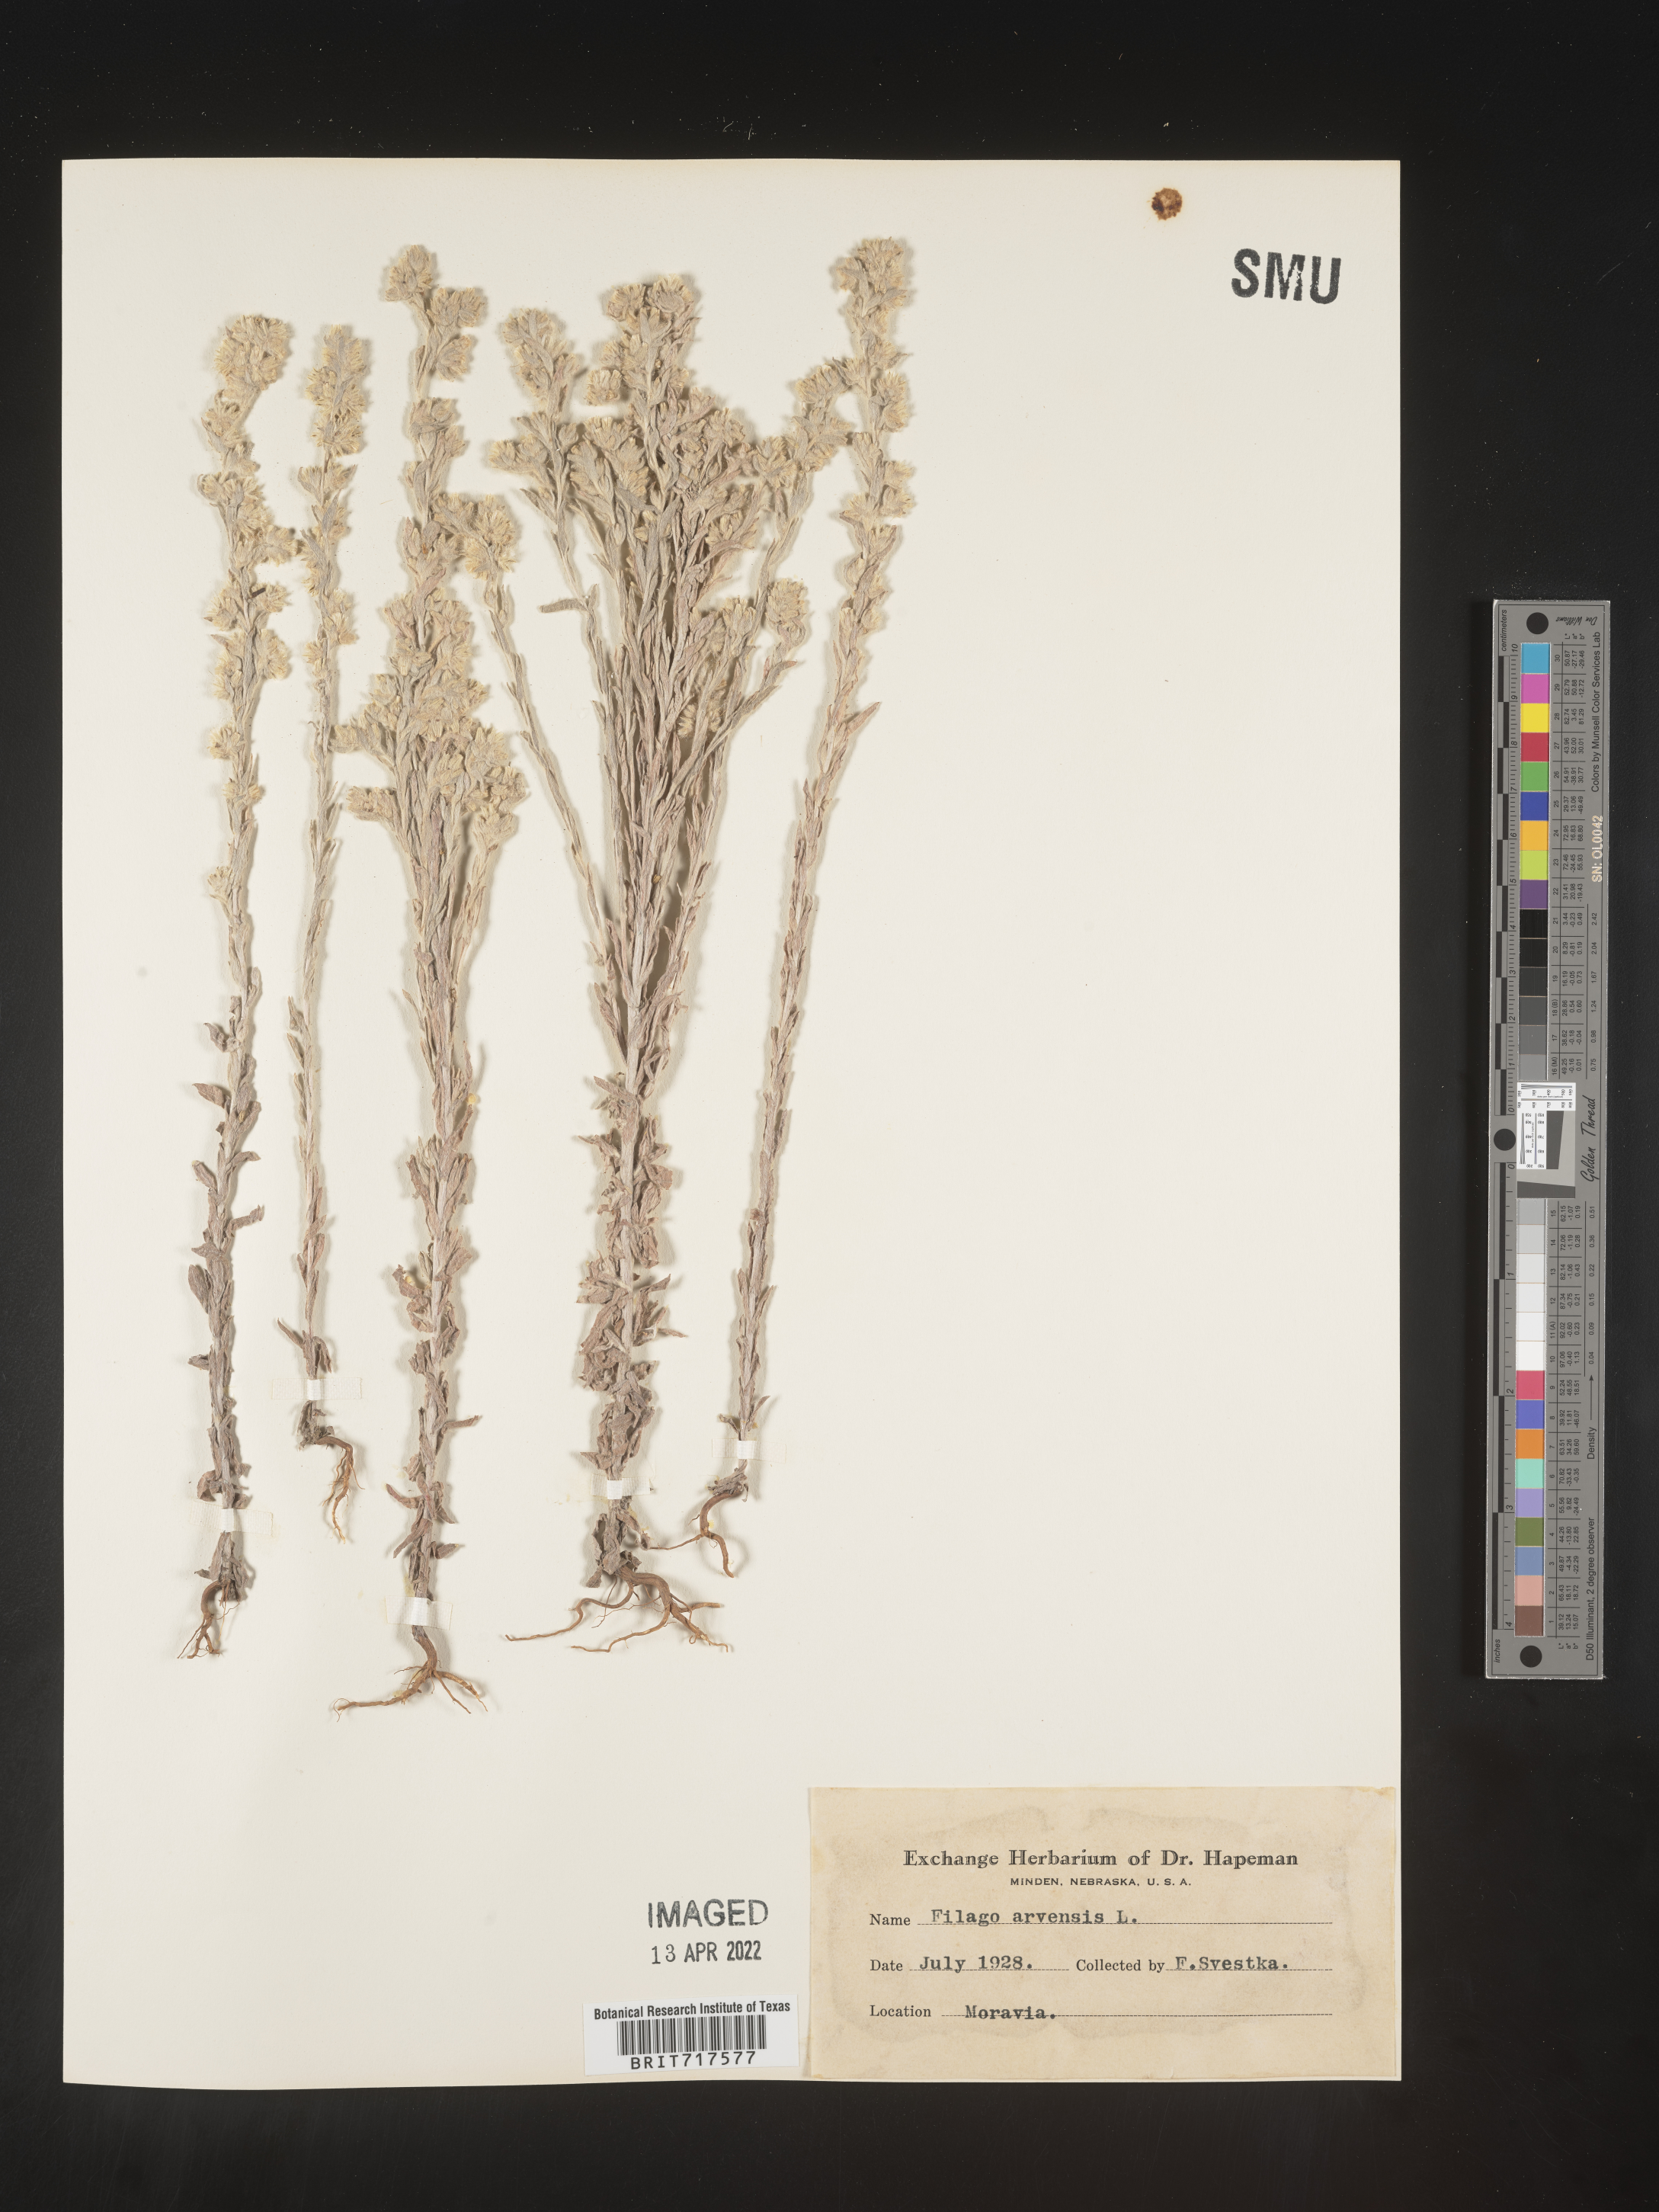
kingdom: Plantae
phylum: Tracheophyta
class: Magnoliopsida
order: Asterales
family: Asteraceae
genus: Filago
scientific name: Filago
